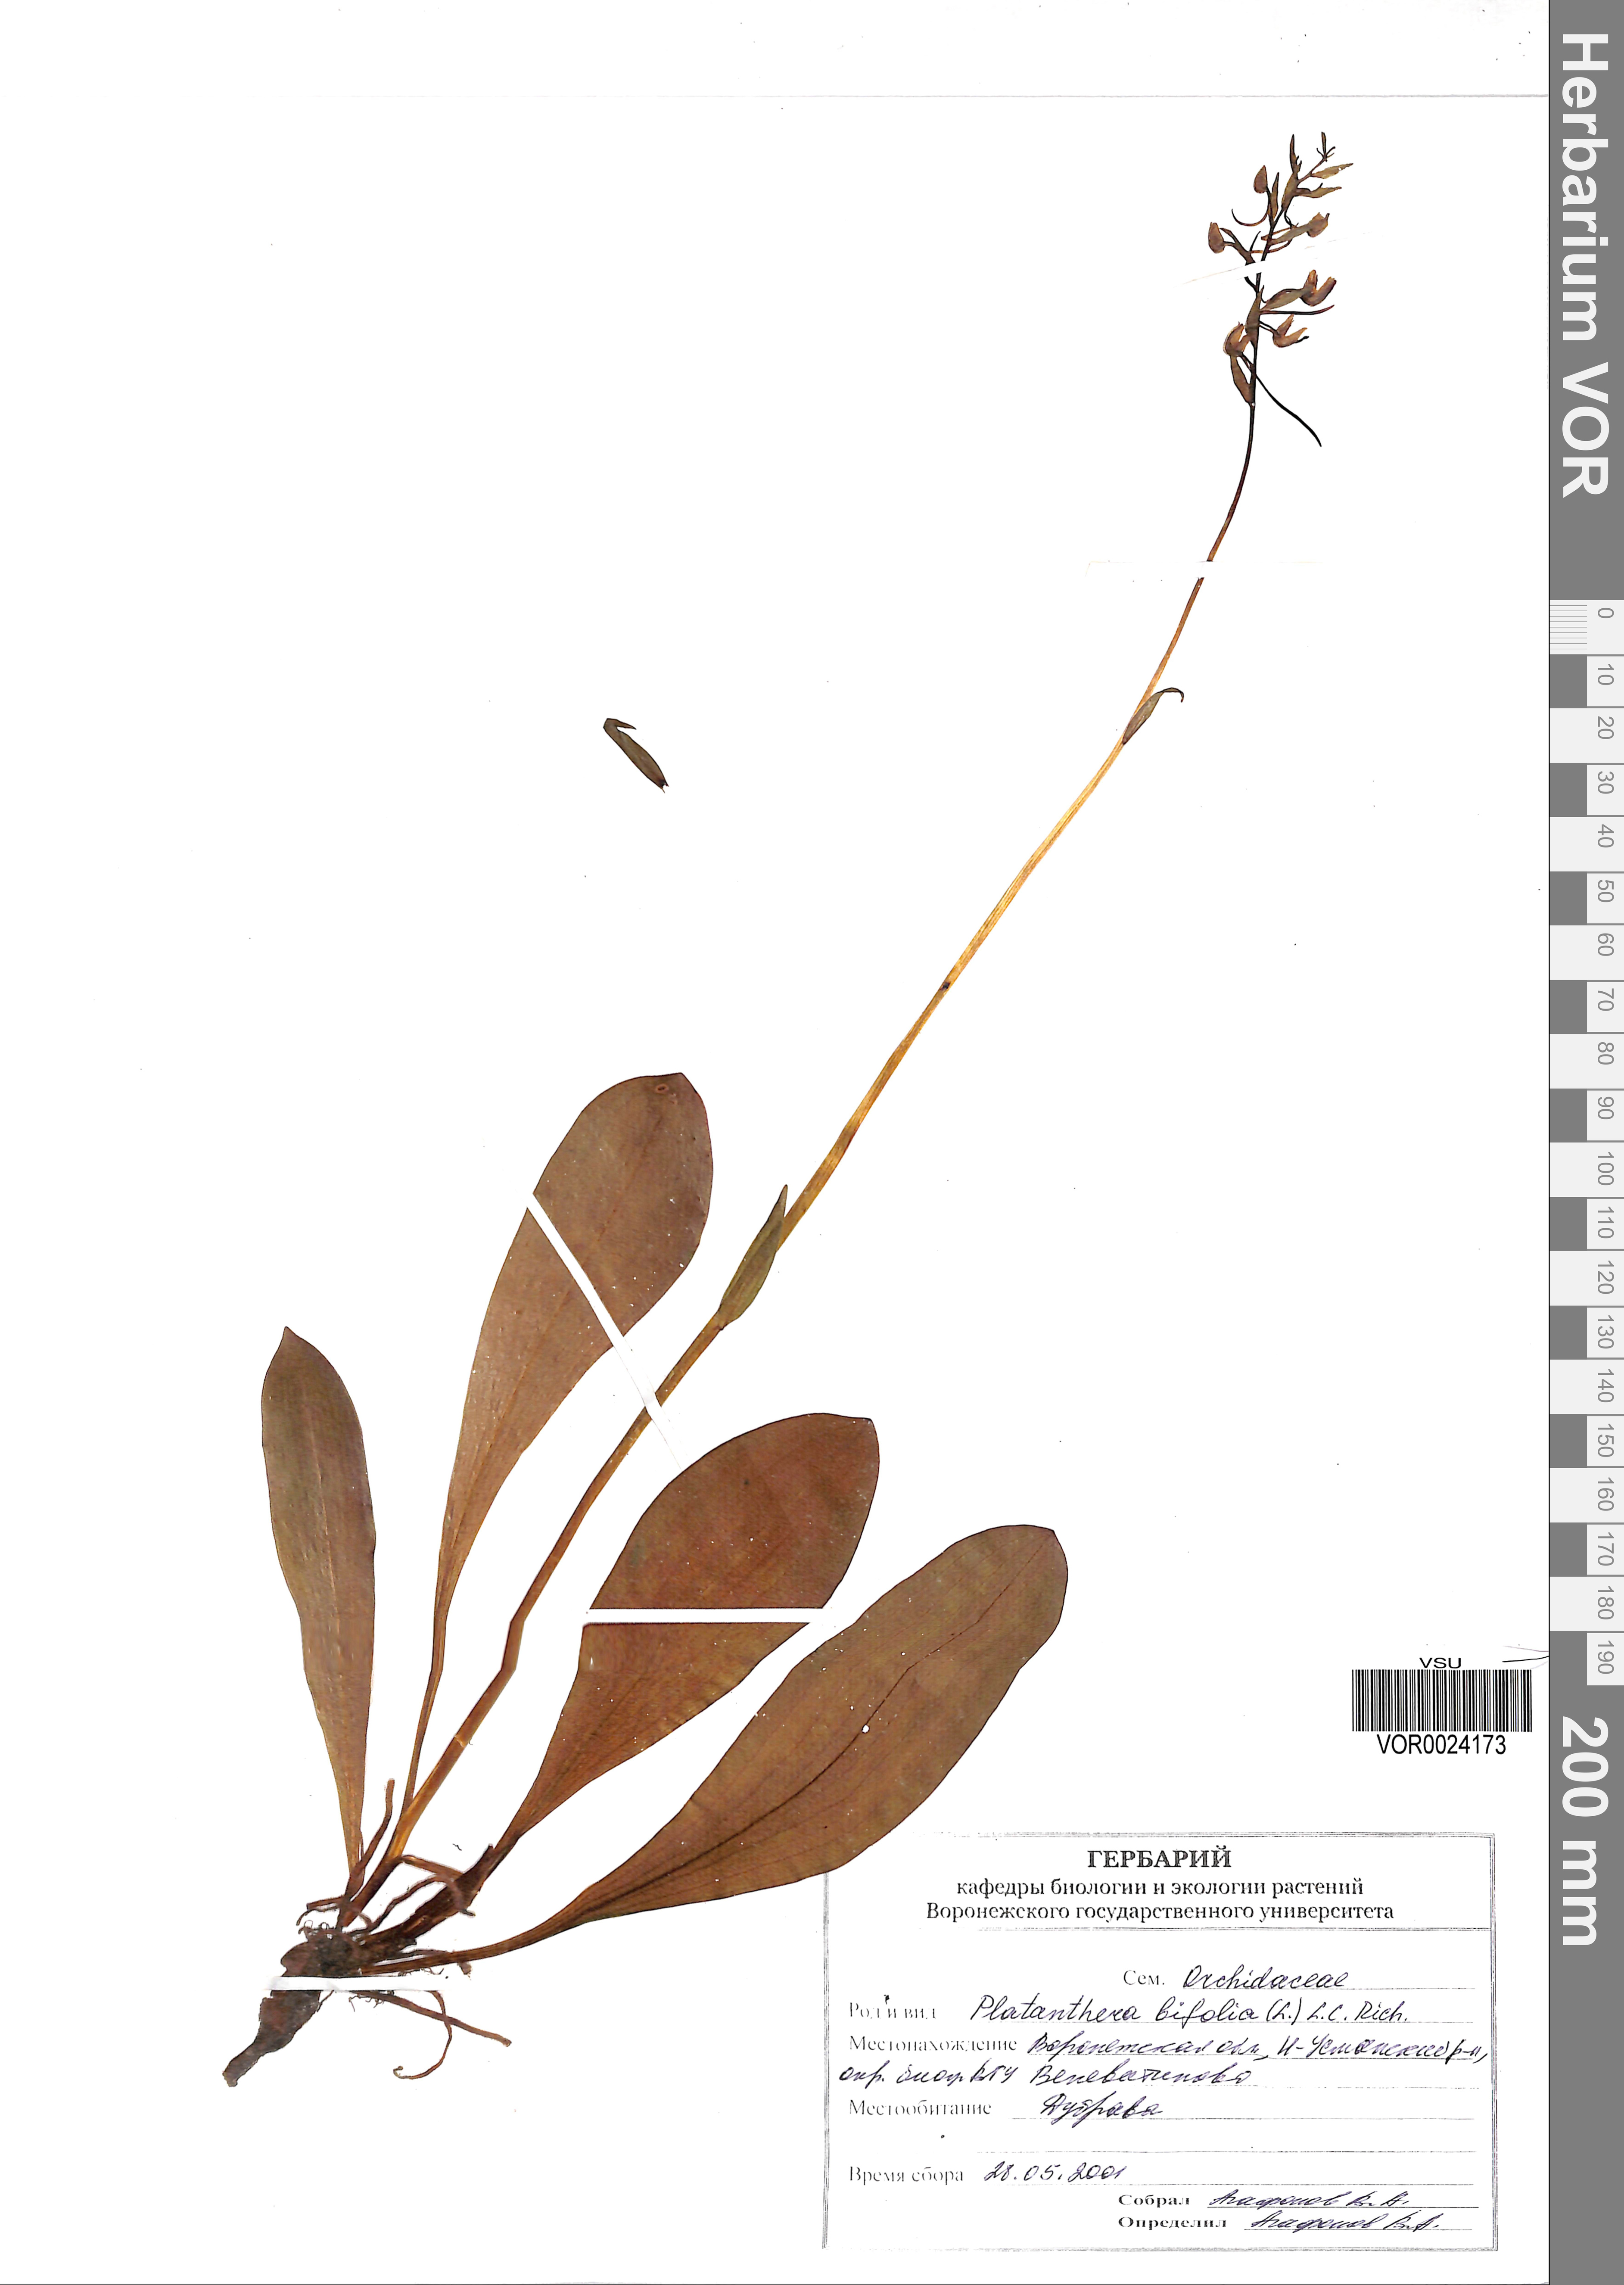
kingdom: Plantae
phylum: Tracheophyta
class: Liliopsida
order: Asparagales
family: Orchidaceae
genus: Platanthera
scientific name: Platanthera bifolia
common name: Lesser butterfly-orchid
